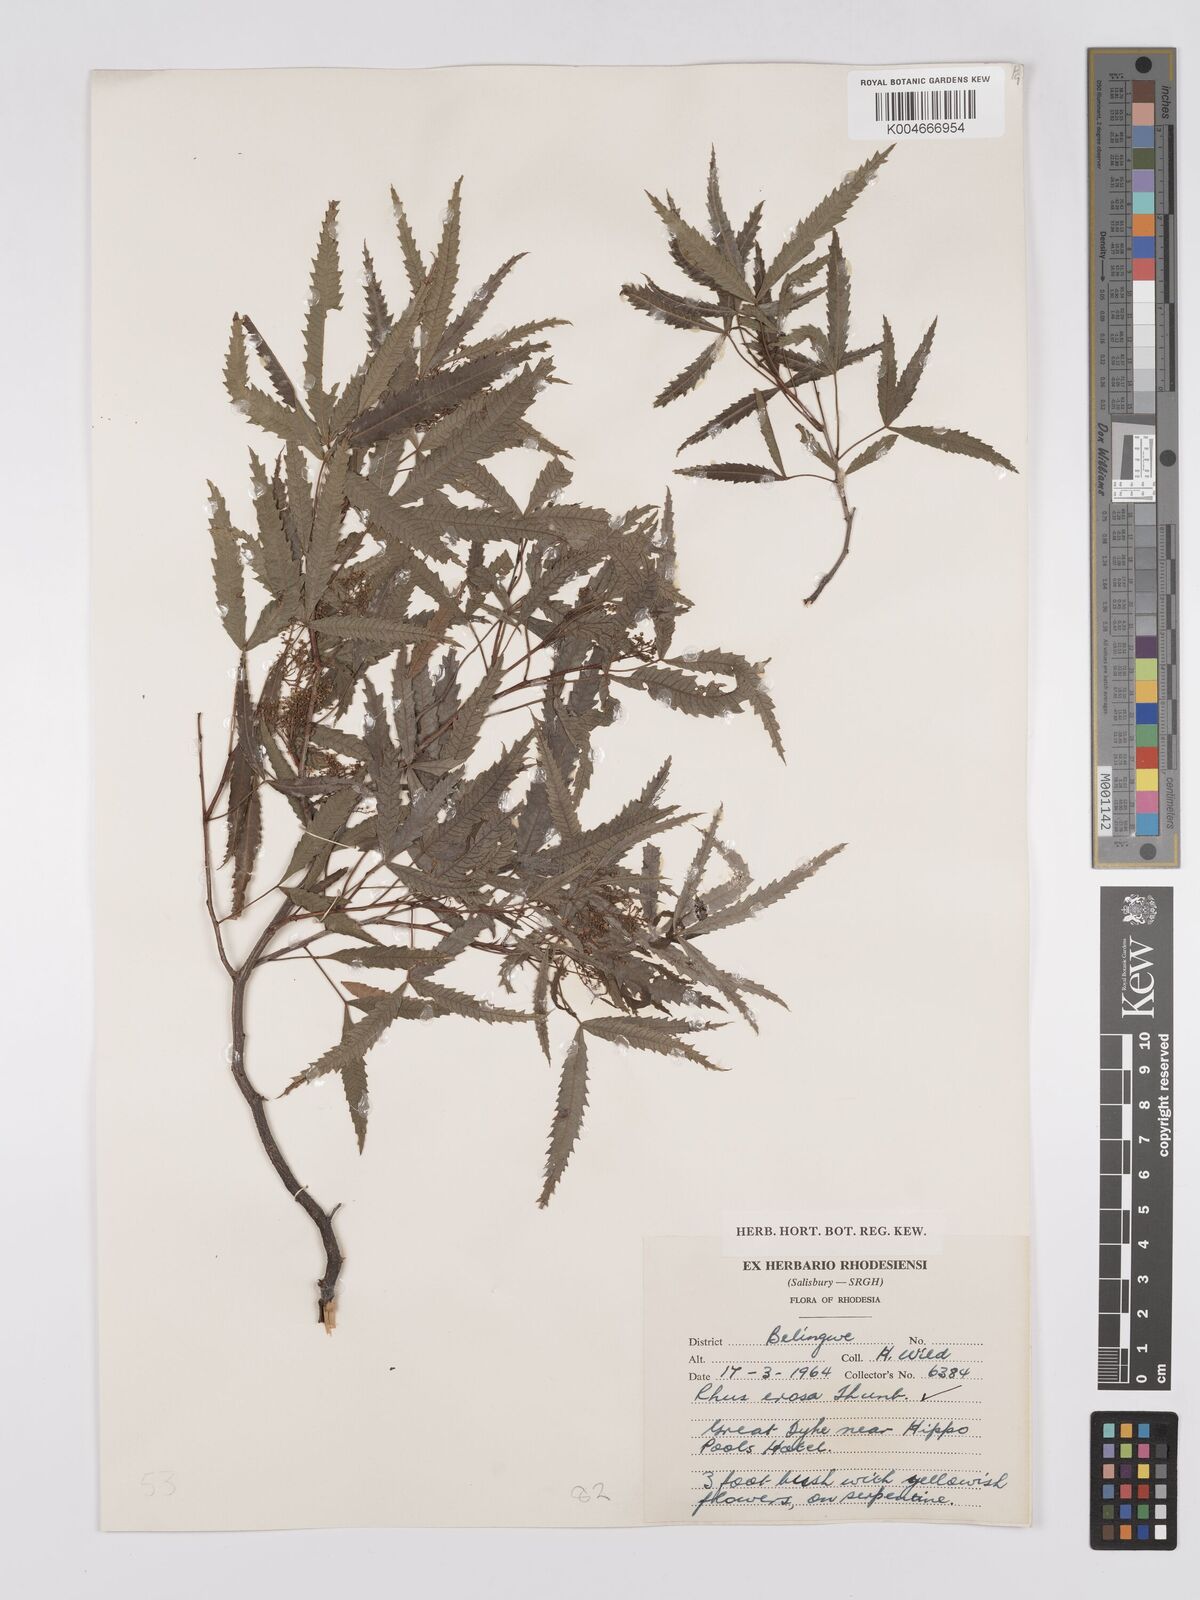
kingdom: Plantae
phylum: Tracheophyta
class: Magnoliopsida
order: Sapindales
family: Anacardiaceae
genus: Rhus
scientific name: Rhus
